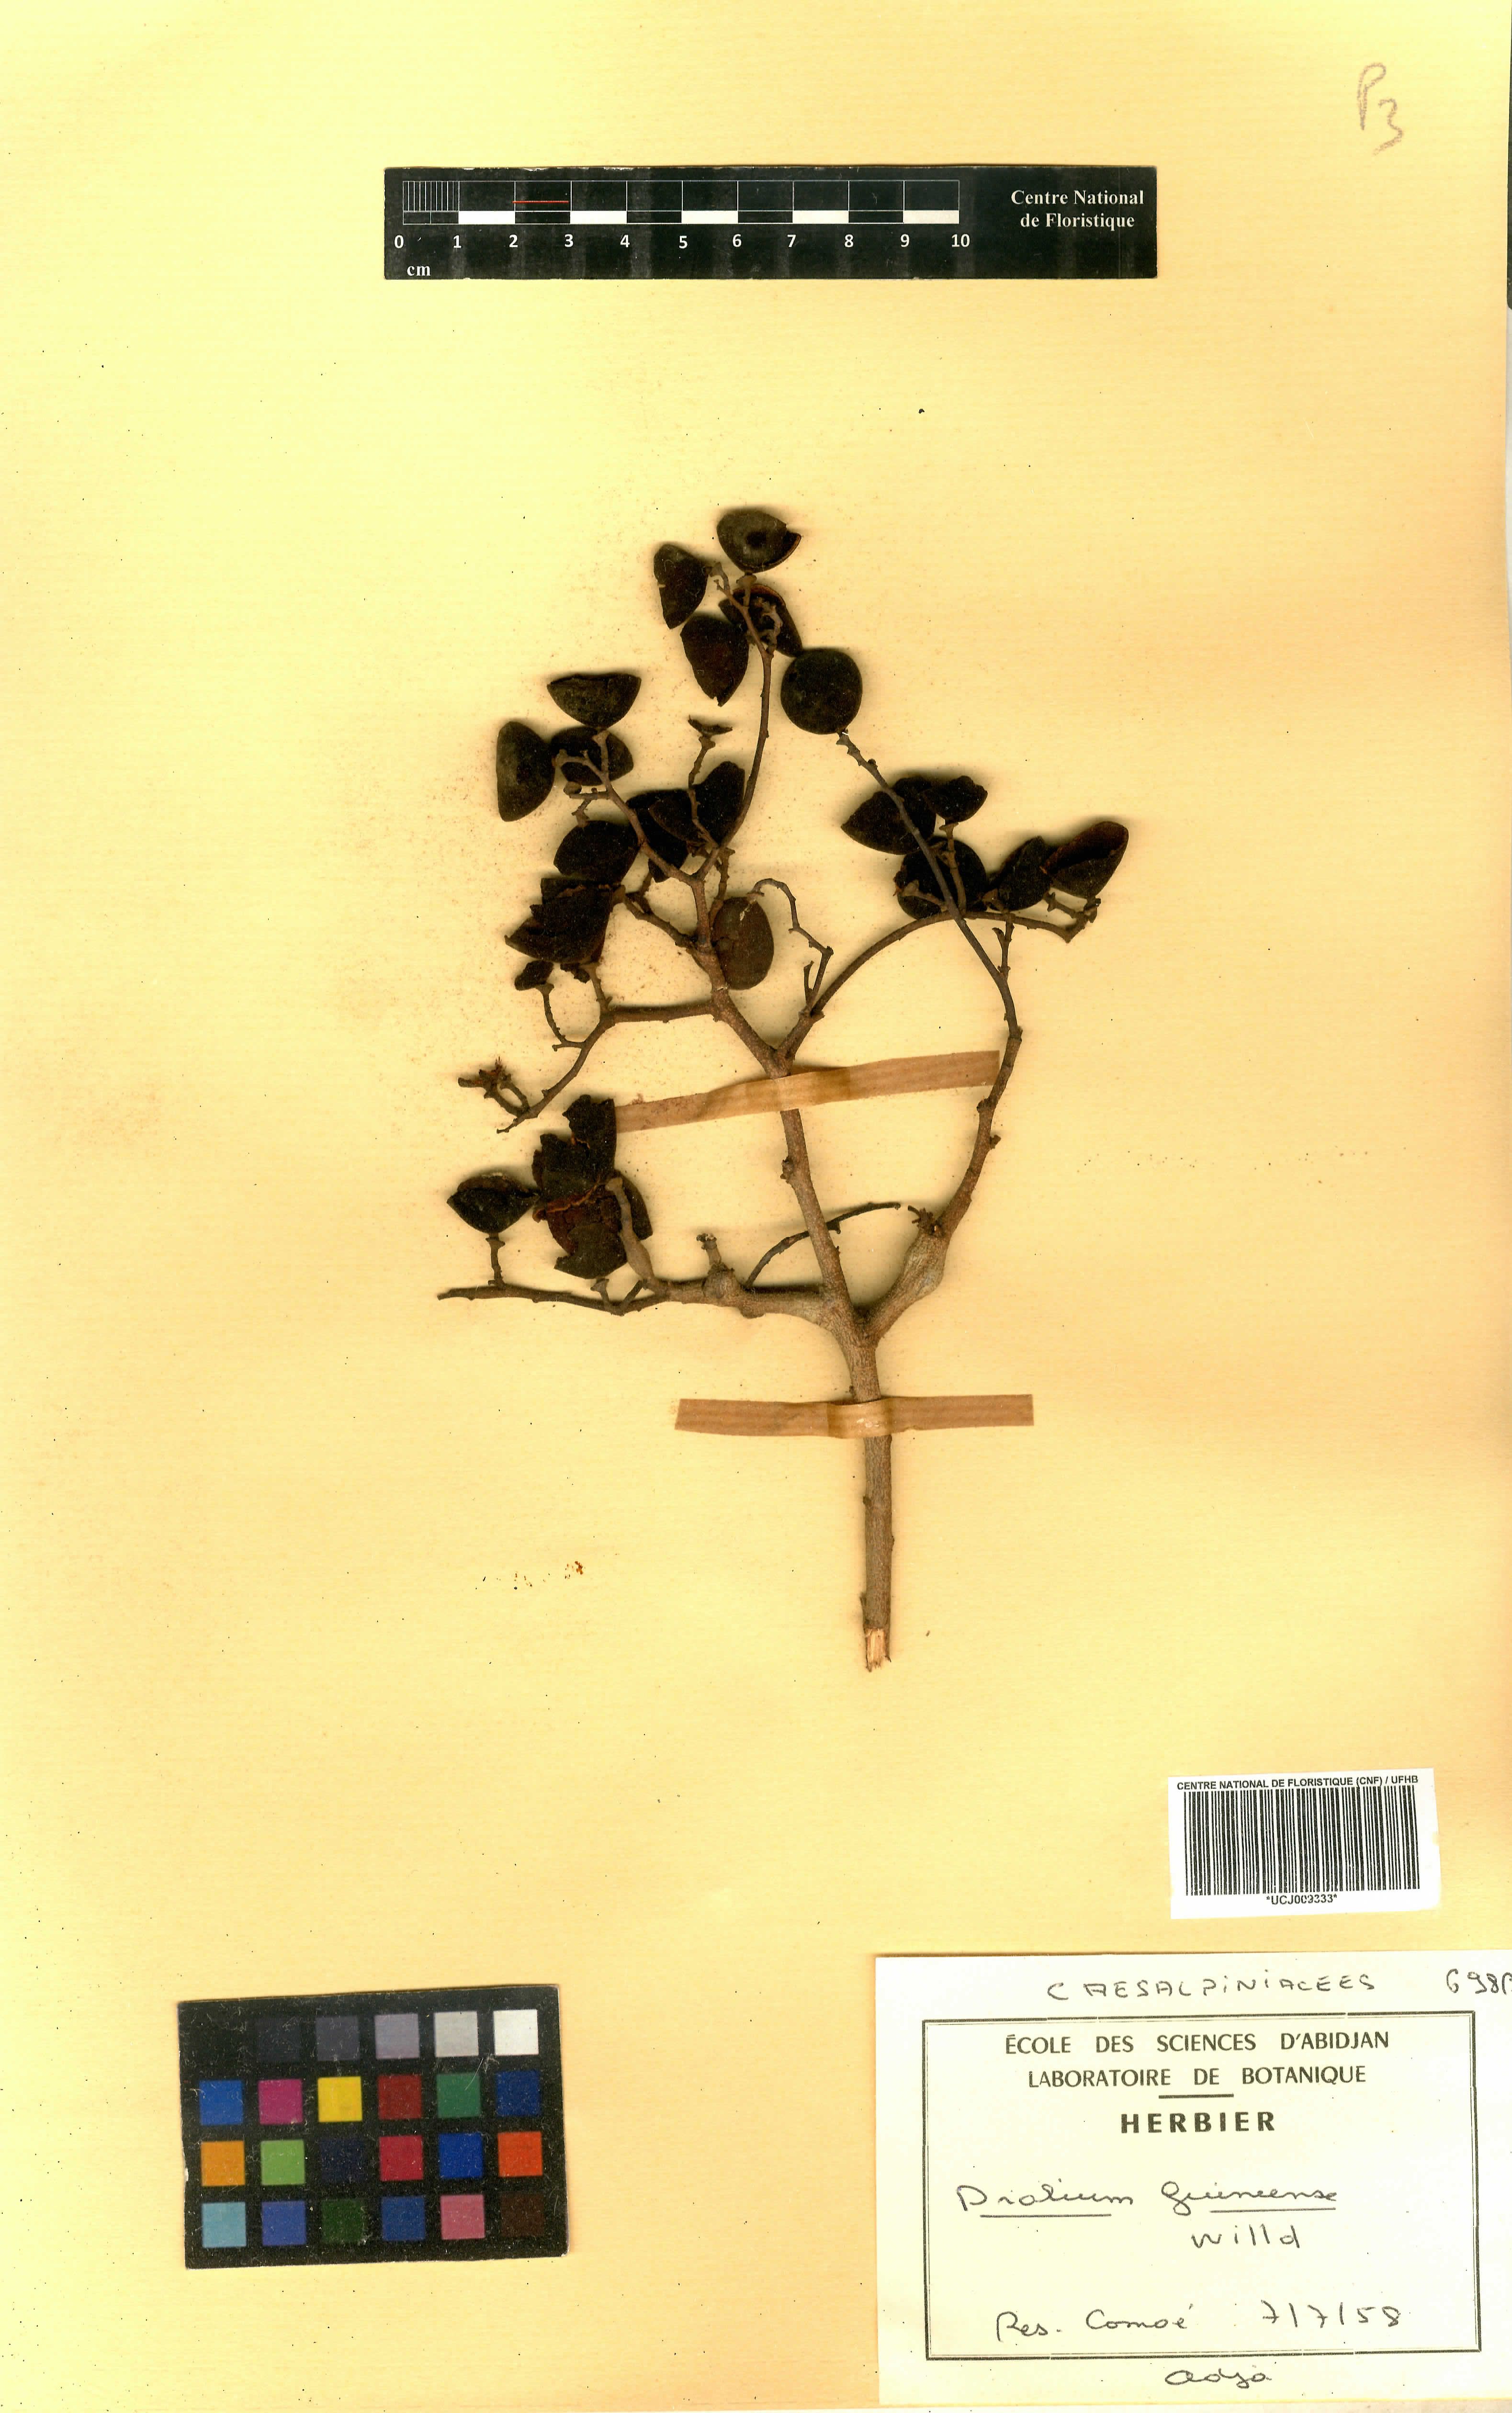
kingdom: Plantae
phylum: Tracheophyta
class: Magnoliopsida
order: Fabales
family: Fabaceae
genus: Dialium
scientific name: Dialium guineense
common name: Sierra leone-tamarind
